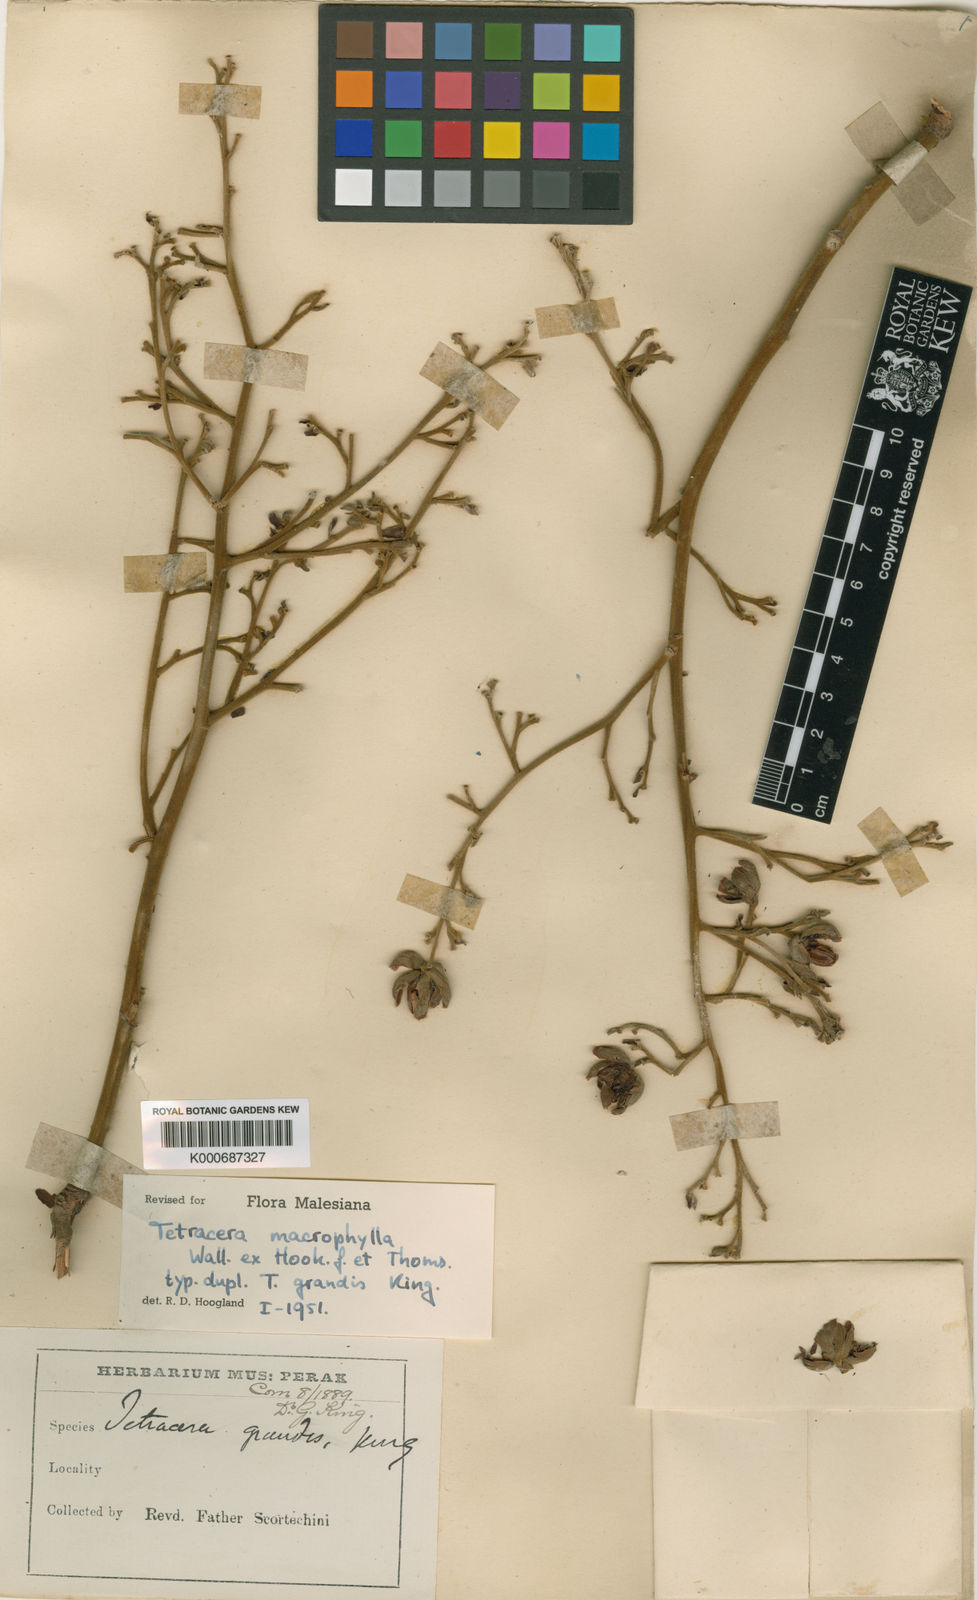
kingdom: Plantae
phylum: Tracheophyta
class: Magnoliopsida
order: Dilleniales
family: Dilleniaceae
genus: Tetracera
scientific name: Tetracera macrophylla
